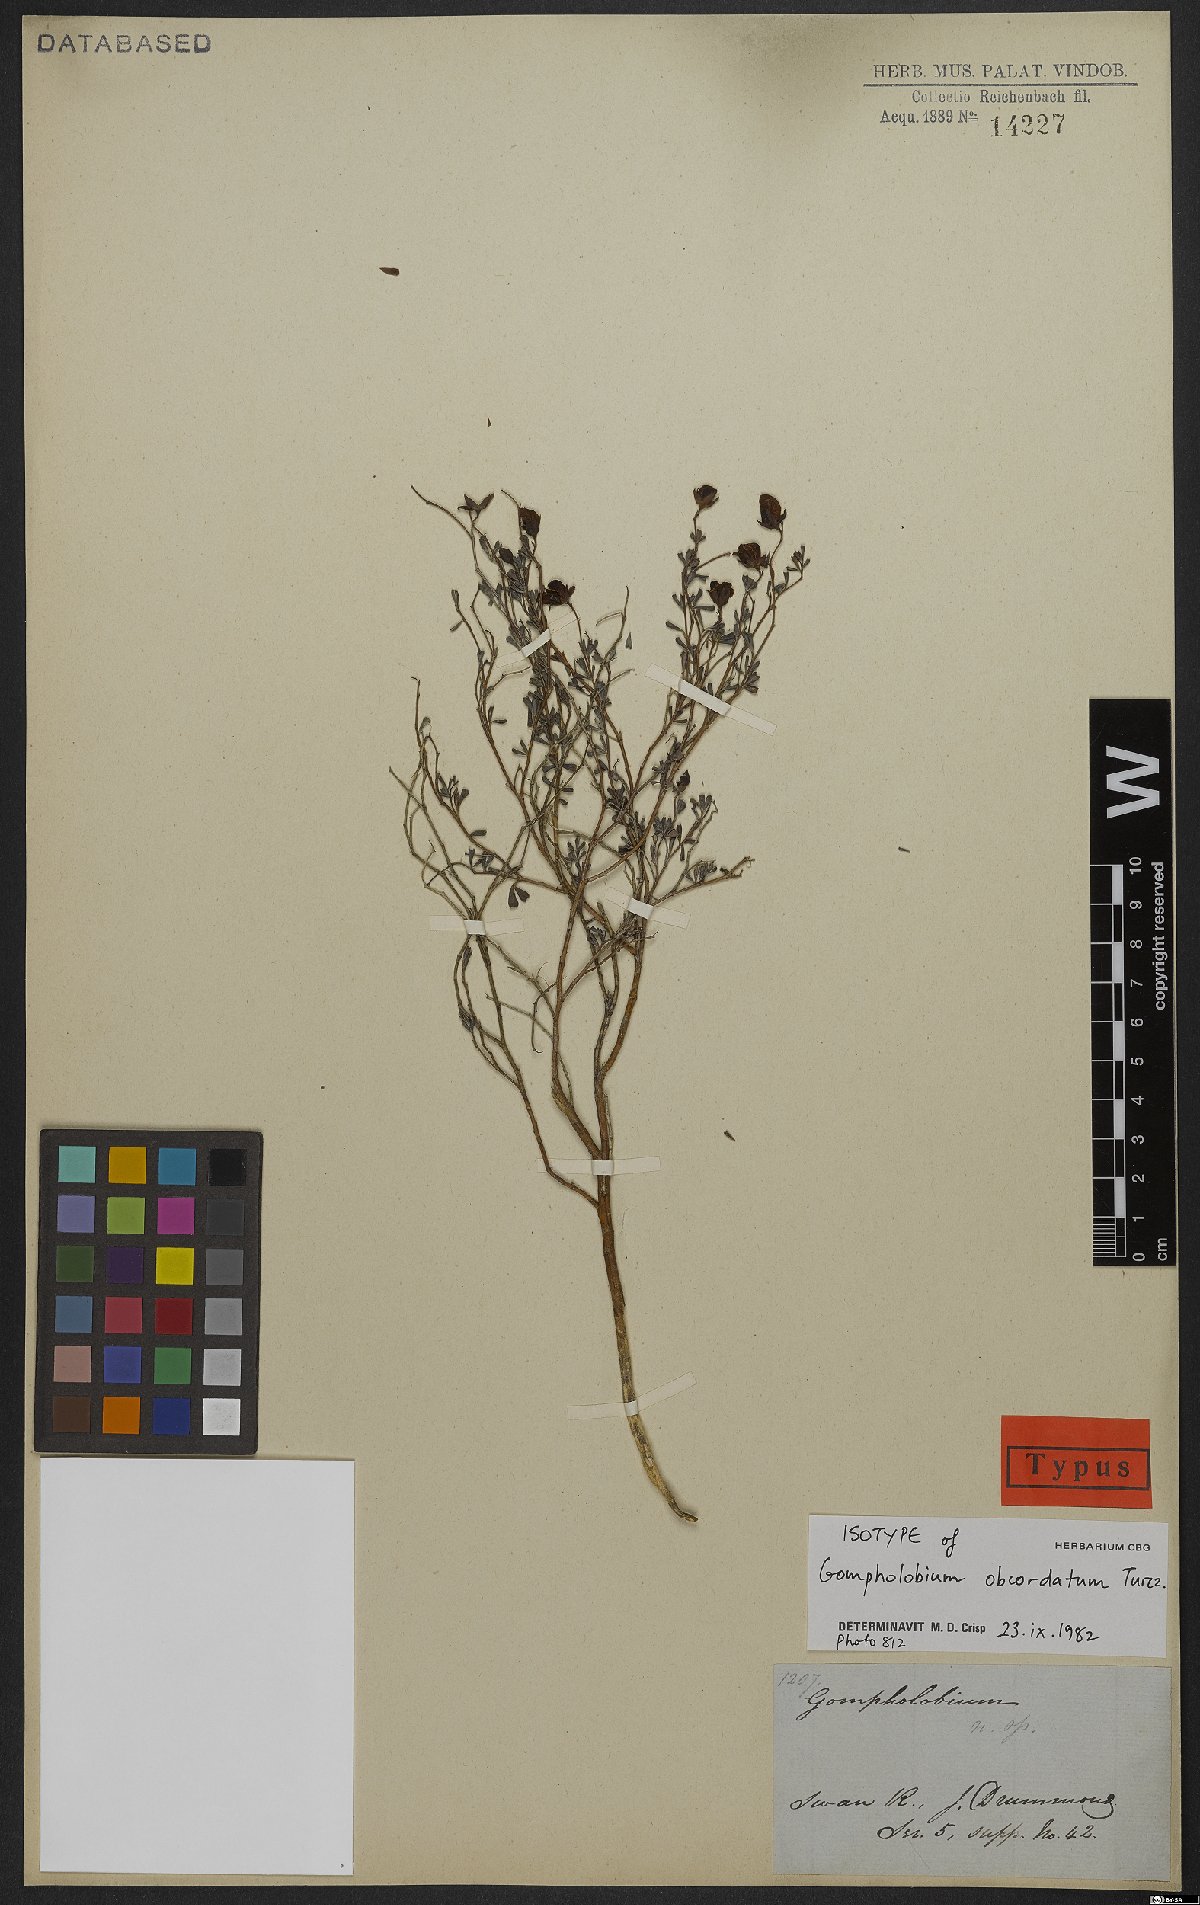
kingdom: Plantae
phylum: Tracheophyta
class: Magnoliopsida
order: Fabales
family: Fabaceae
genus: Gompholobium
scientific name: Gompholobium obcordatum
